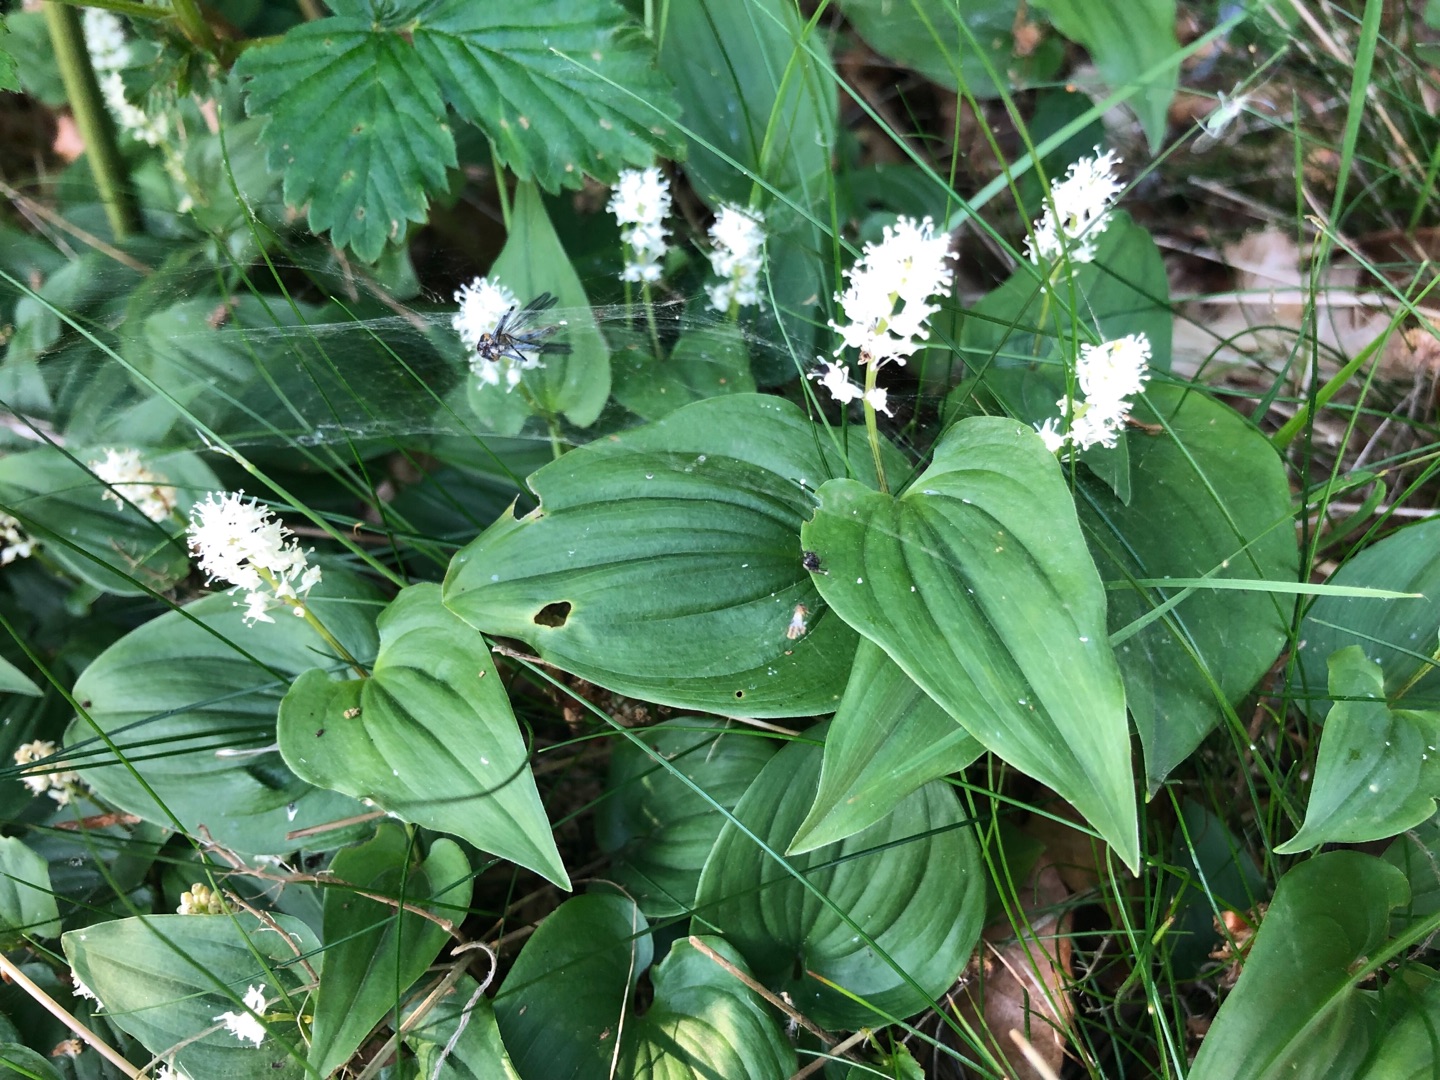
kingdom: Plantae
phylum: Tracheophyta
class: Liliopsida
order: Asparagales
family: Asparagaceae
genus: Maianthemum
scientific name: Maianthemum bifolium
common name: Majblomst
